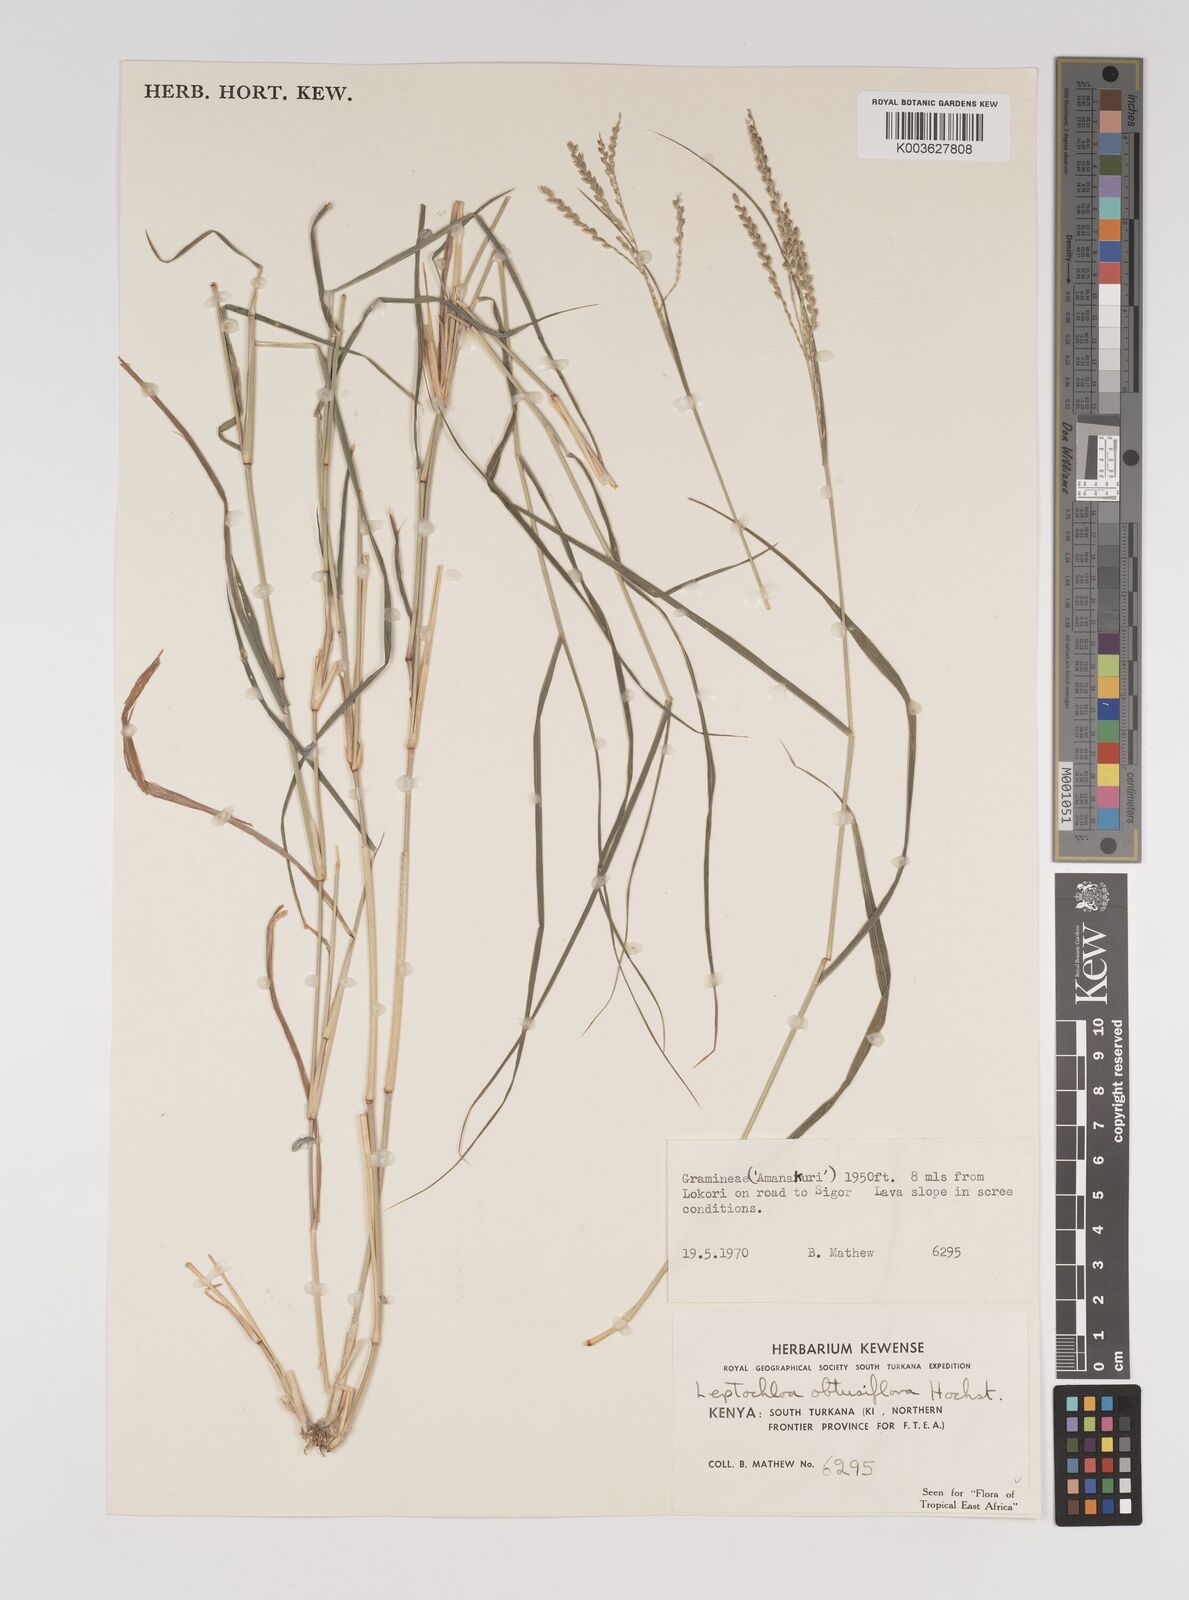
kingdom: Plantae
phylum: Tracheophyta
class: Liliopsida
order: Poales
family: Poaceae
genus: Disakisperma
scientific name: Disakisperma obtusiflorum
